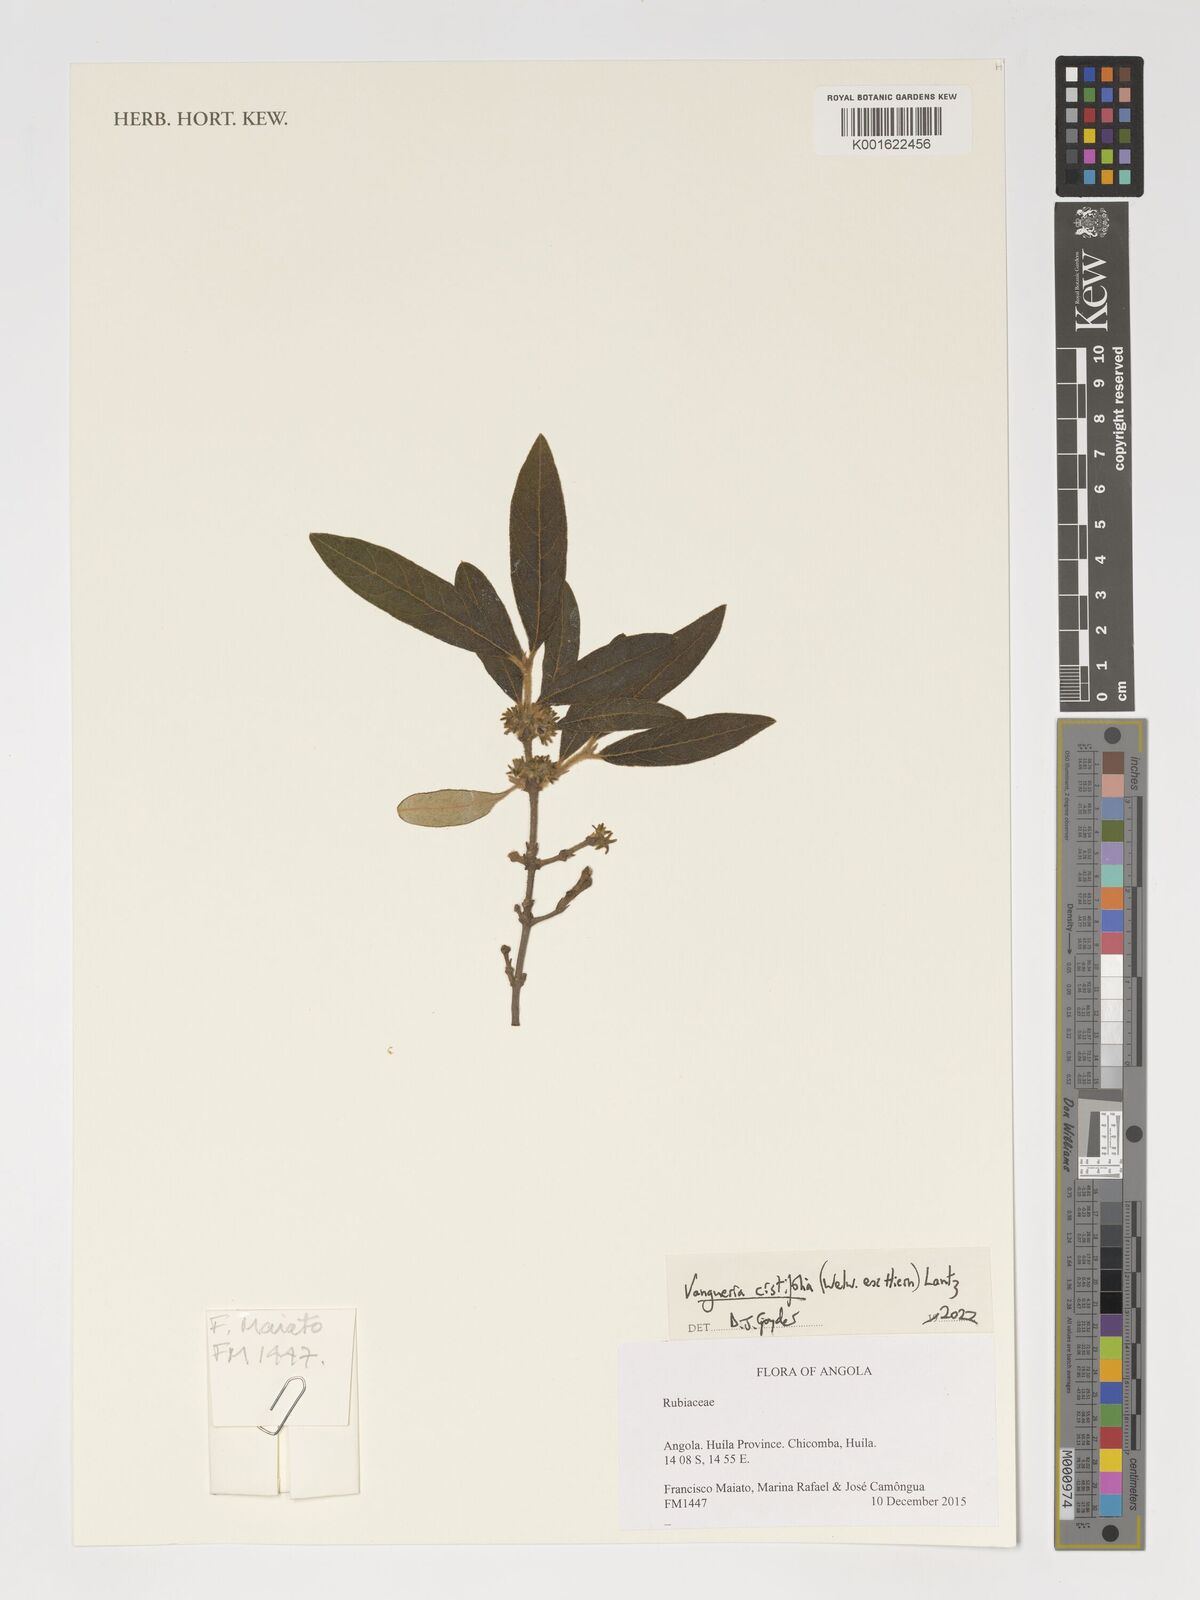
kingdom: Plantae
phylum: Tracheophyta
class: Magnoliopsida
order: Gentianales
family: Rubiaceae
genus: Vangueria
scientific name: Vangueria cistifolia
